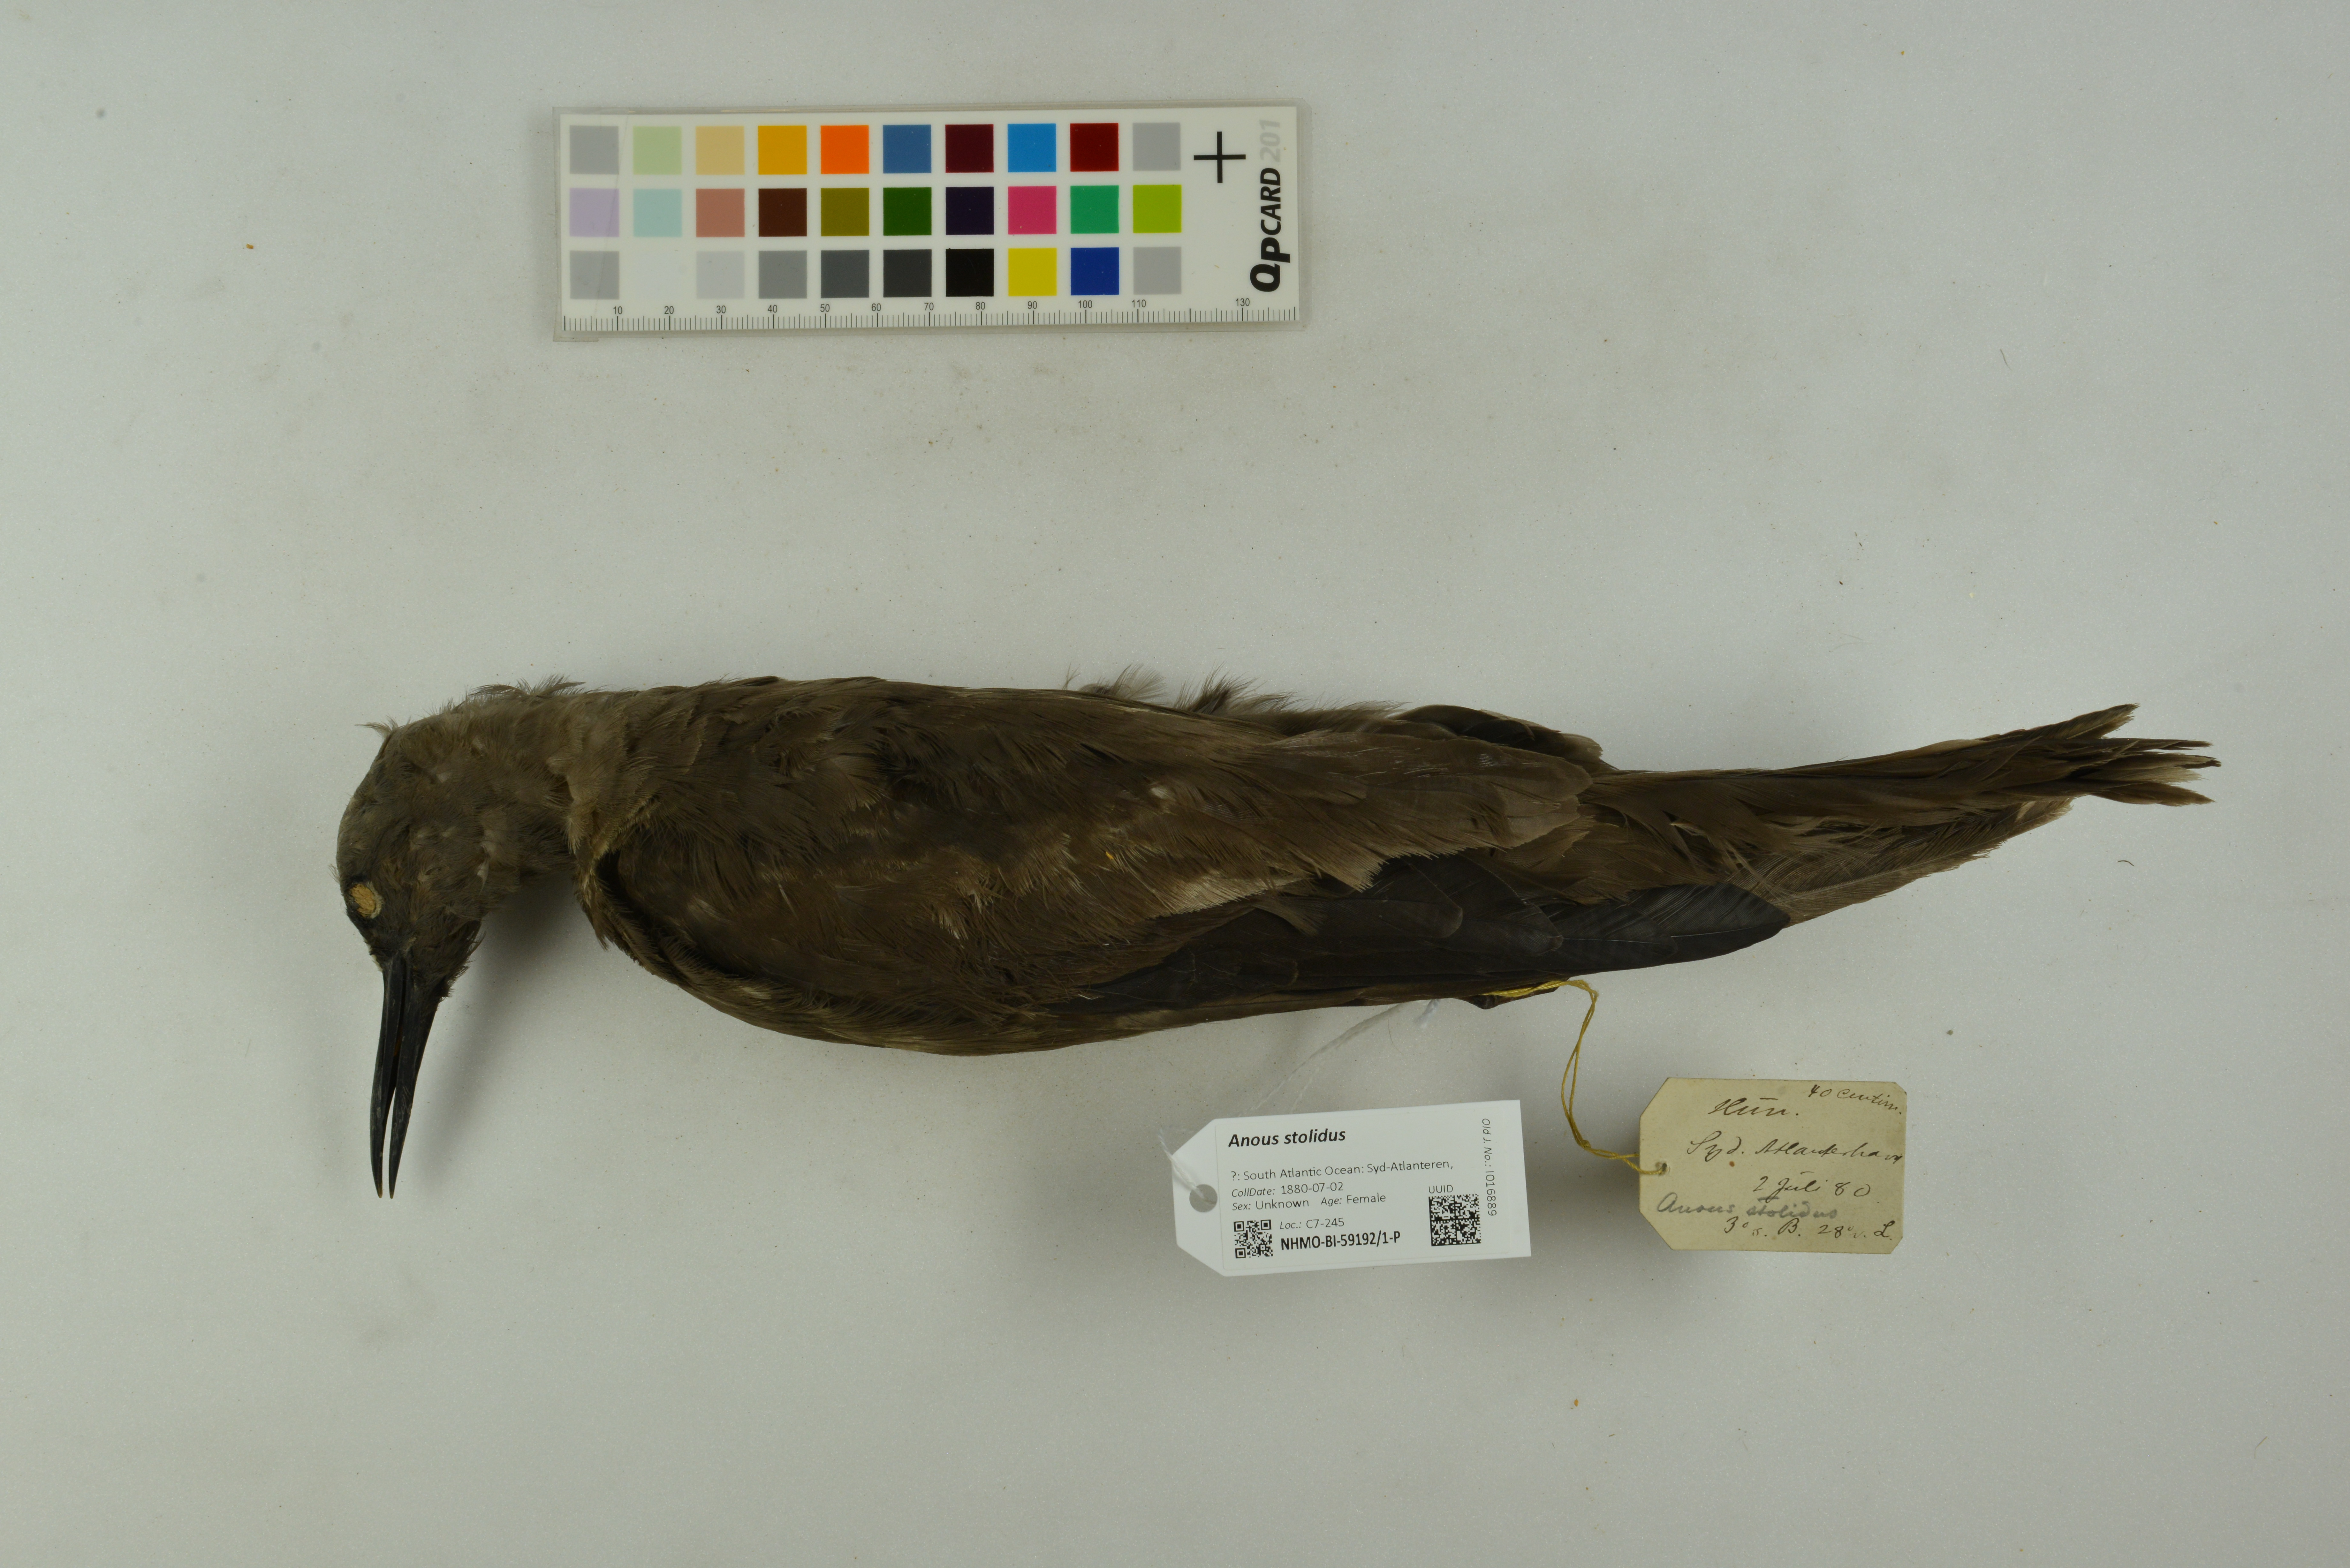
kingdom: Animalia
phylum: Chordata
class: Aves
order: Charadriiformes
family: Laridae
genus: Anous
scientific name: Anous stolidus
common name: Brown noddy
